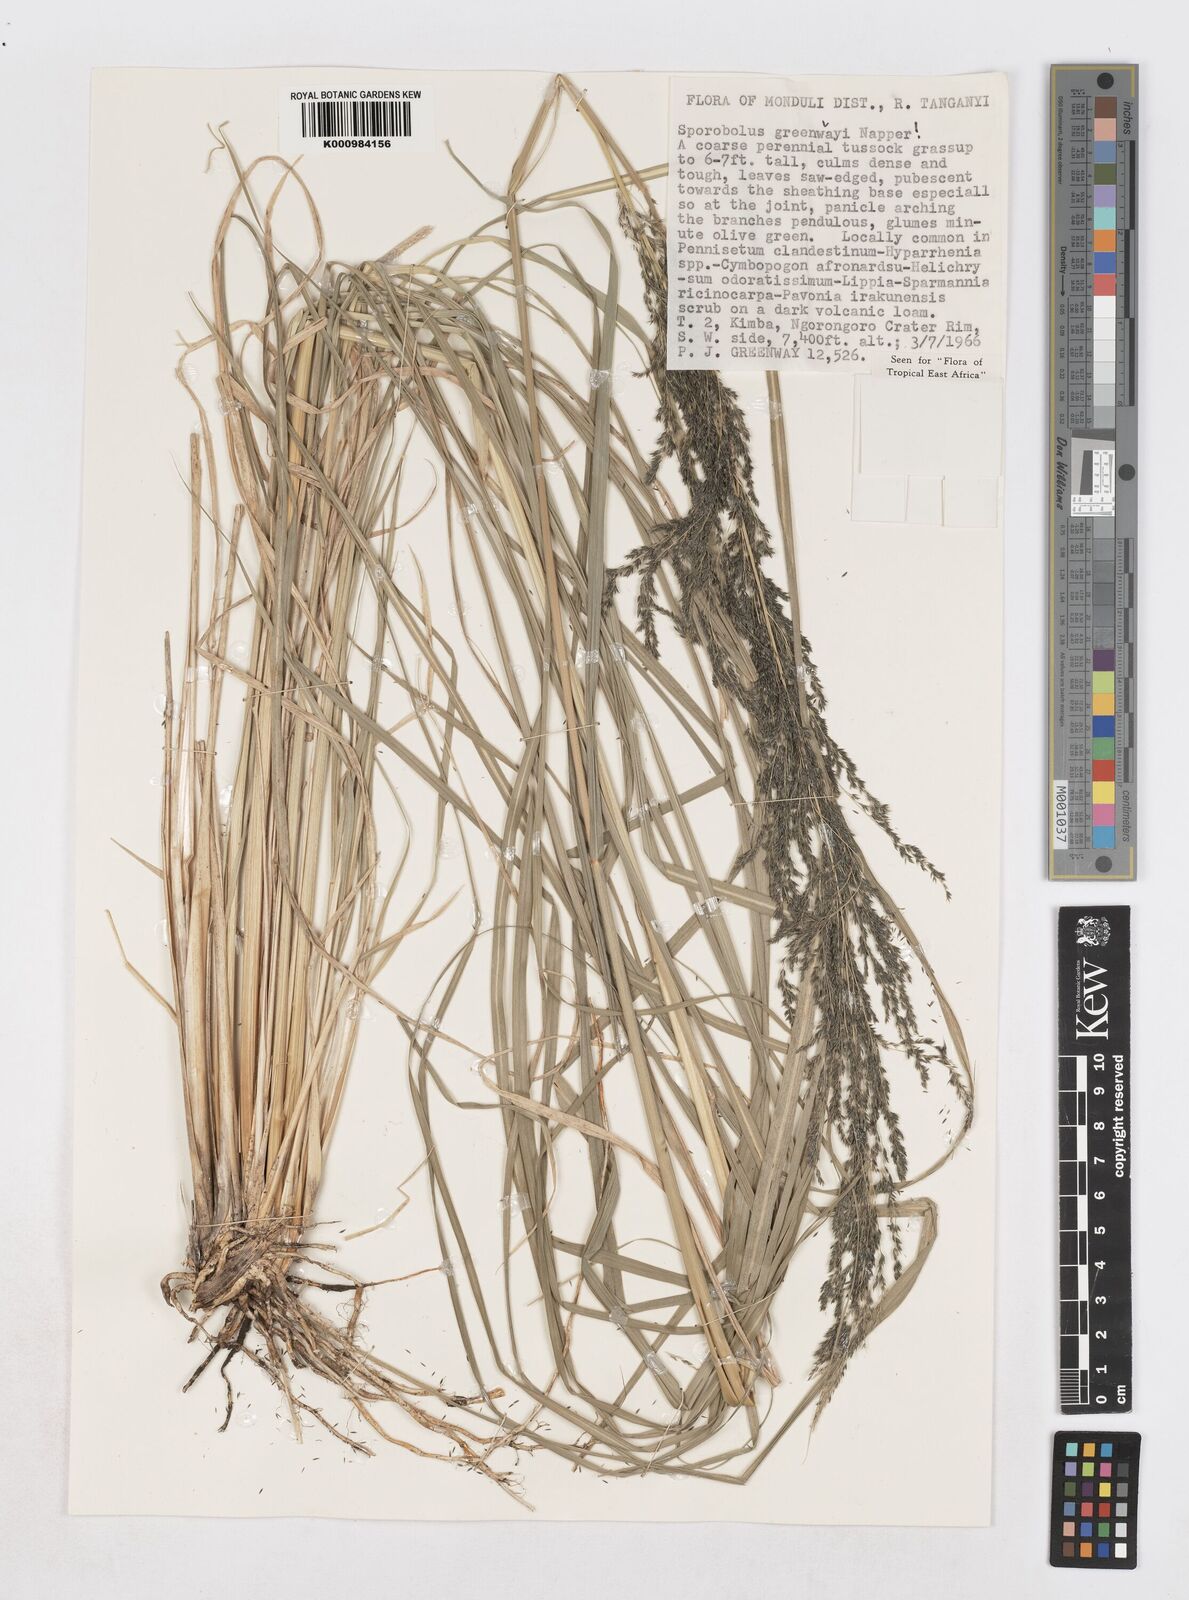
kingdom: Plantae
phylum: Tracheophyta
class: Liliopsida
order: Poales
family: Poaceae
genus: Sporobolus
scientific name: Sporobolus macranthelus
